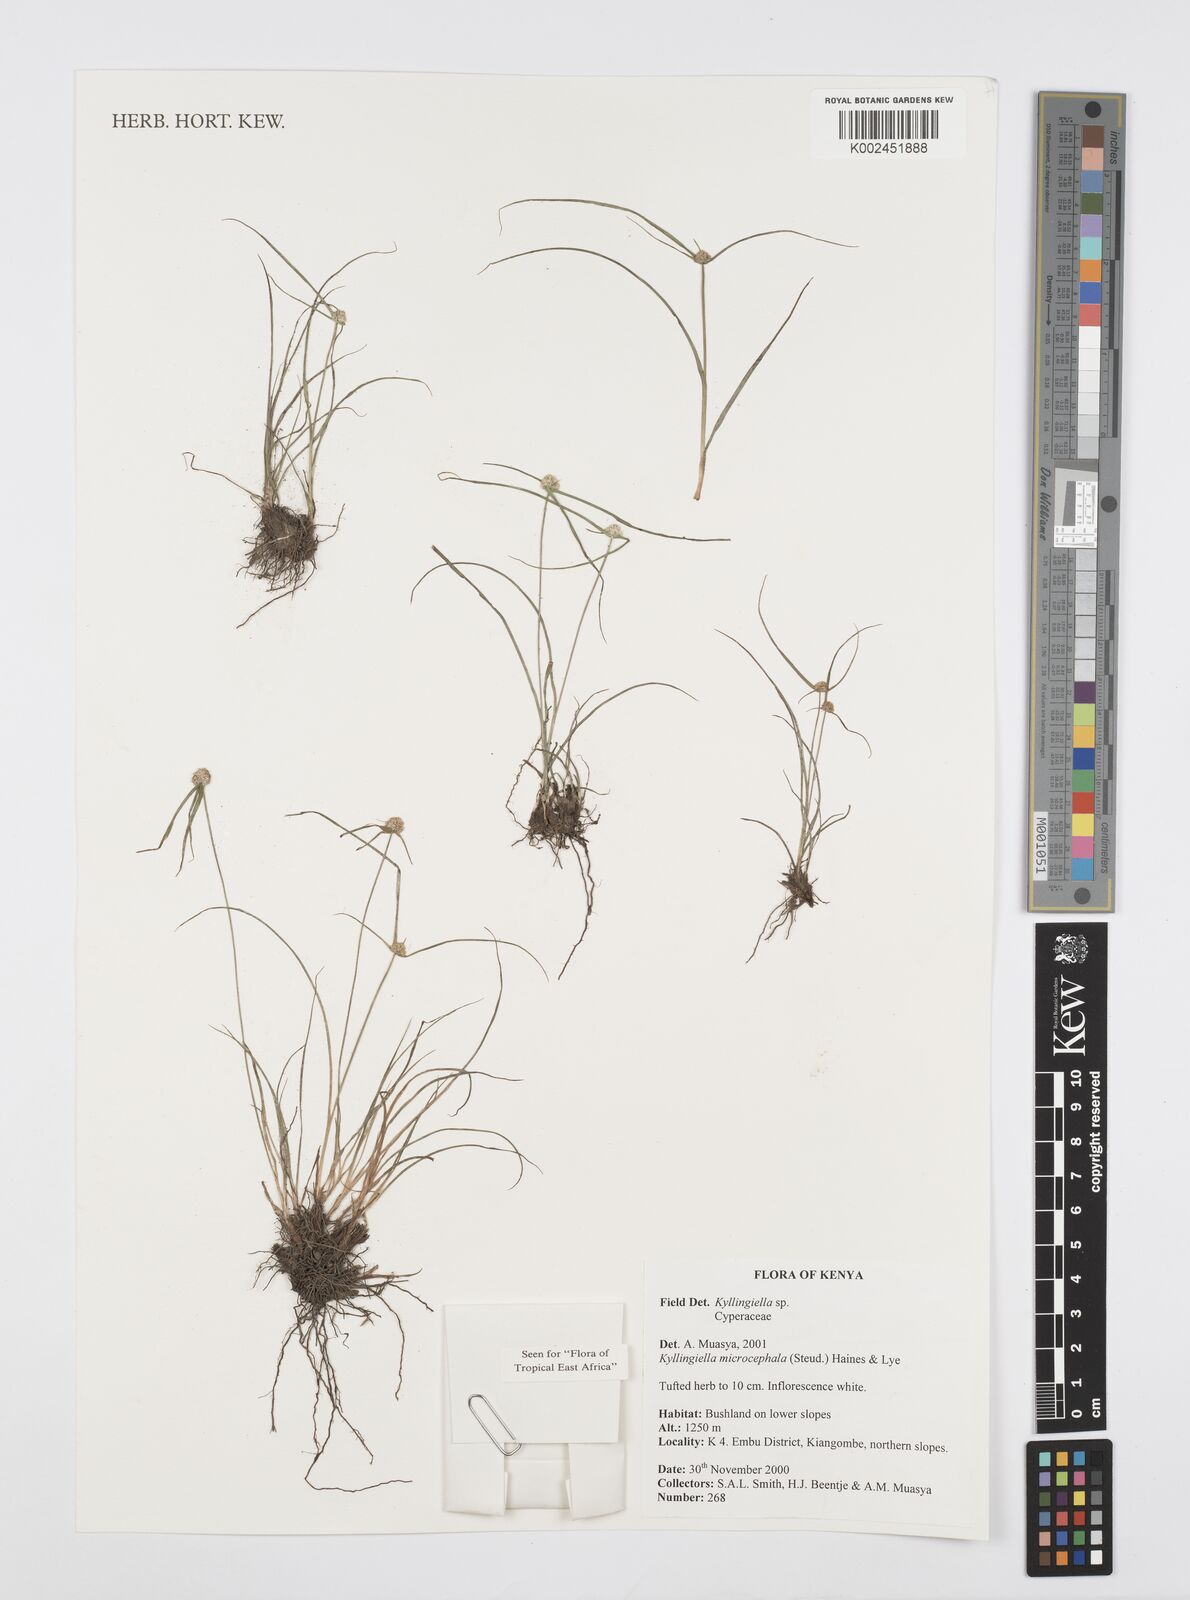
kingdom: Plantae
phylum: Tracheophyta
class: Liliopsida
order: Poales
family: Cyperaceae
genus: Cyperus
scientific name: Cyperus microcephalus
